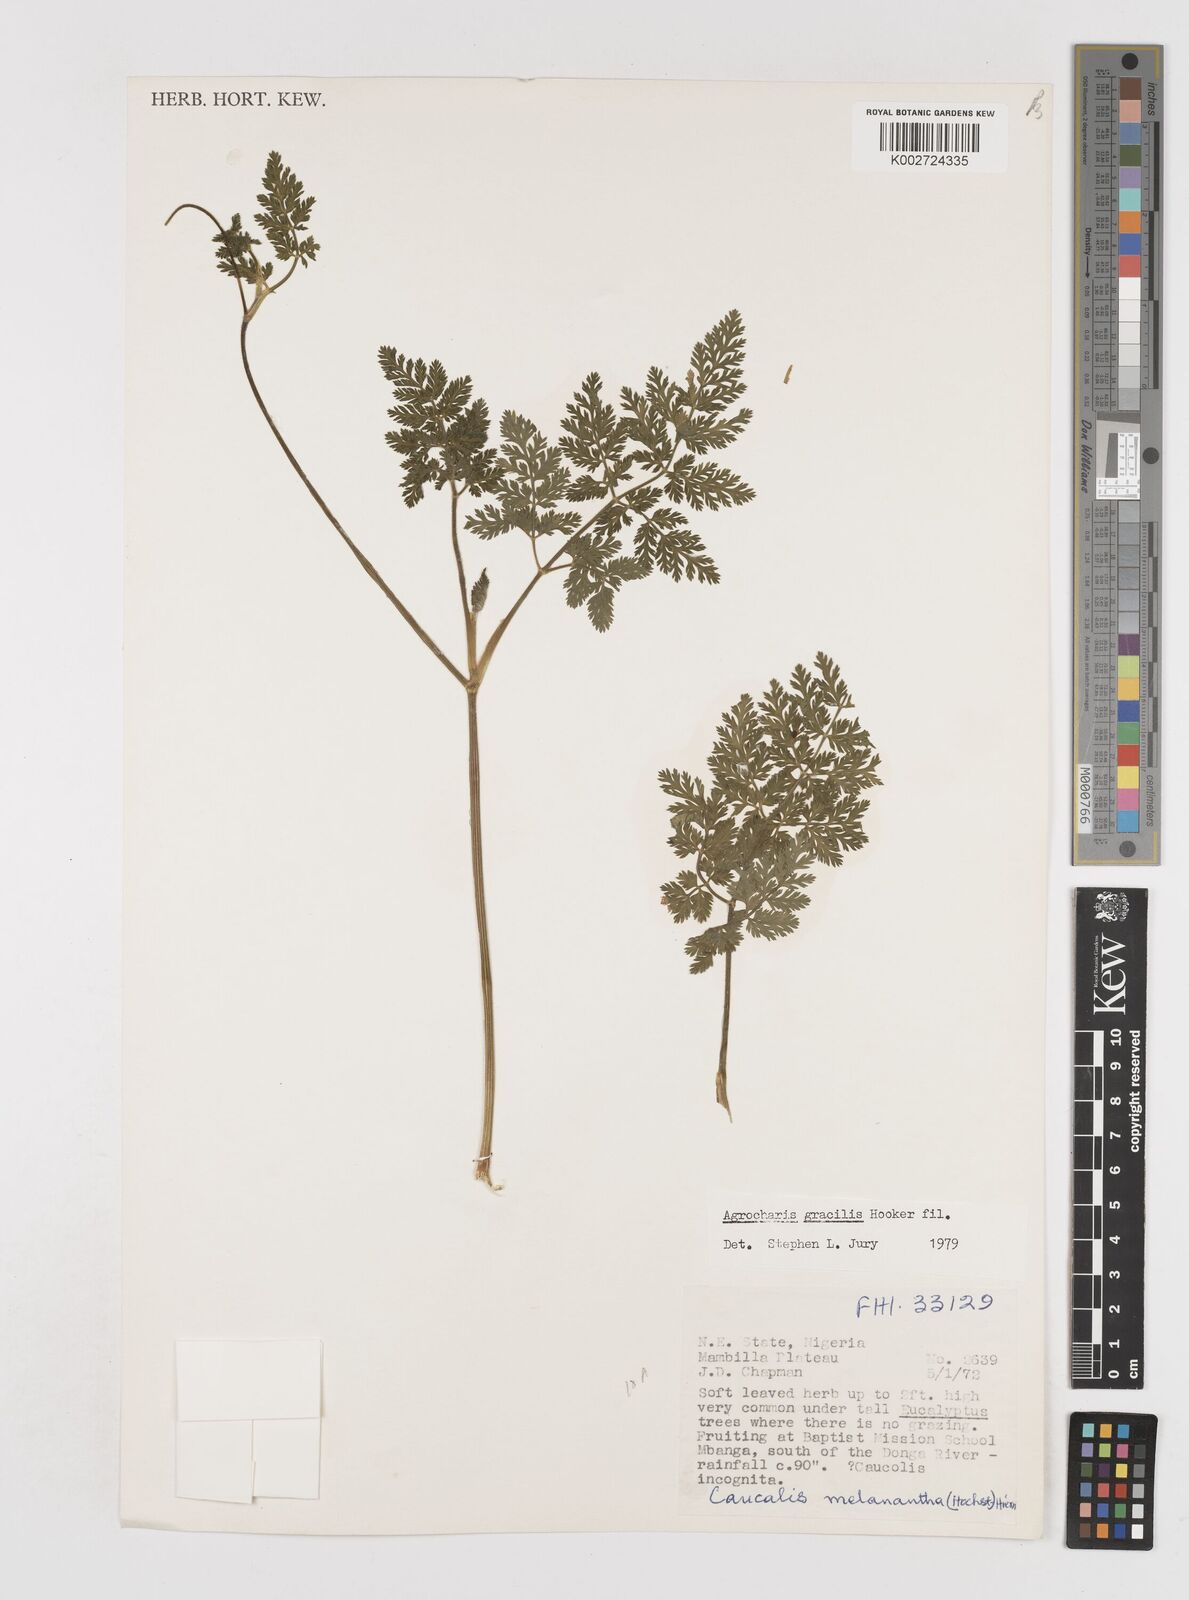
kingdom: Plantae
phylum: Tracheophyta
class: Magnoliopsida
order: Apiales
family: Apiaceae
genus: Daucus
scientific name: Daucus
